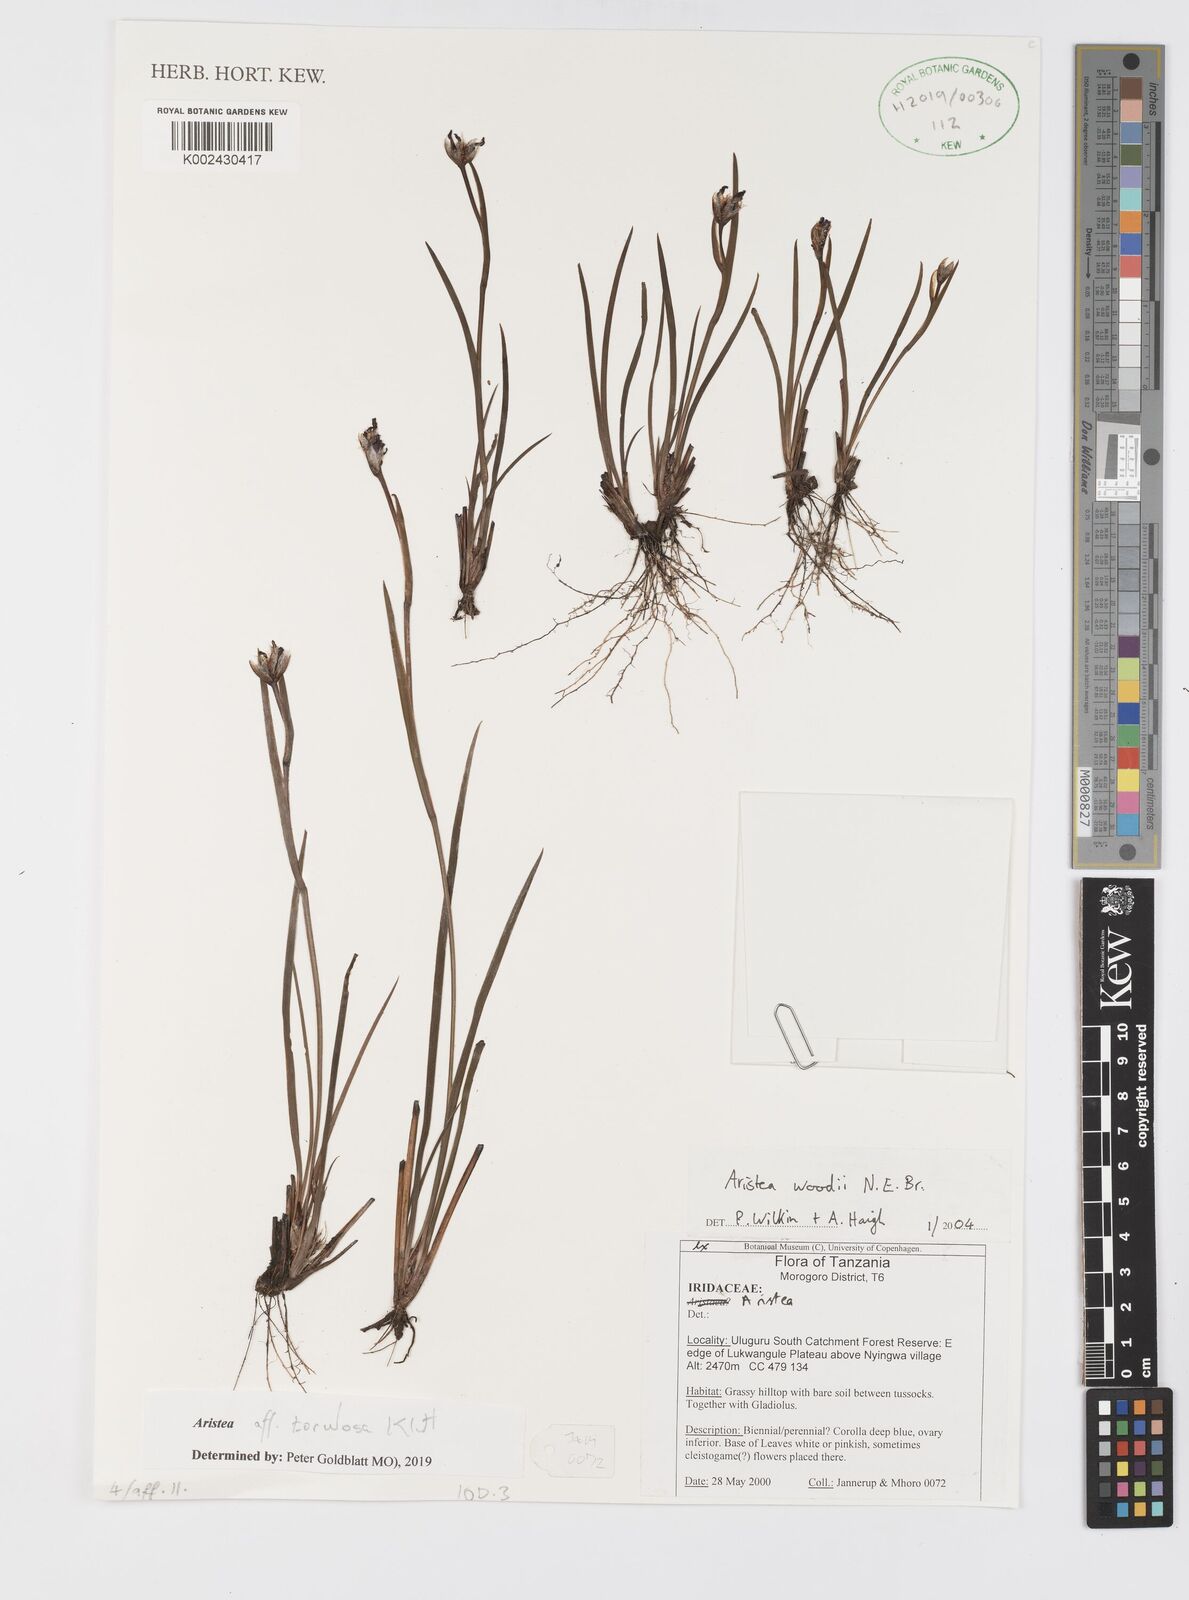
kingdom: Plantae
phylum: Tracheophyta
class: Liliopsida
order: Asparagales
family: Iridaceae
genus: Aristea
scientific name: Aristea torulosa
